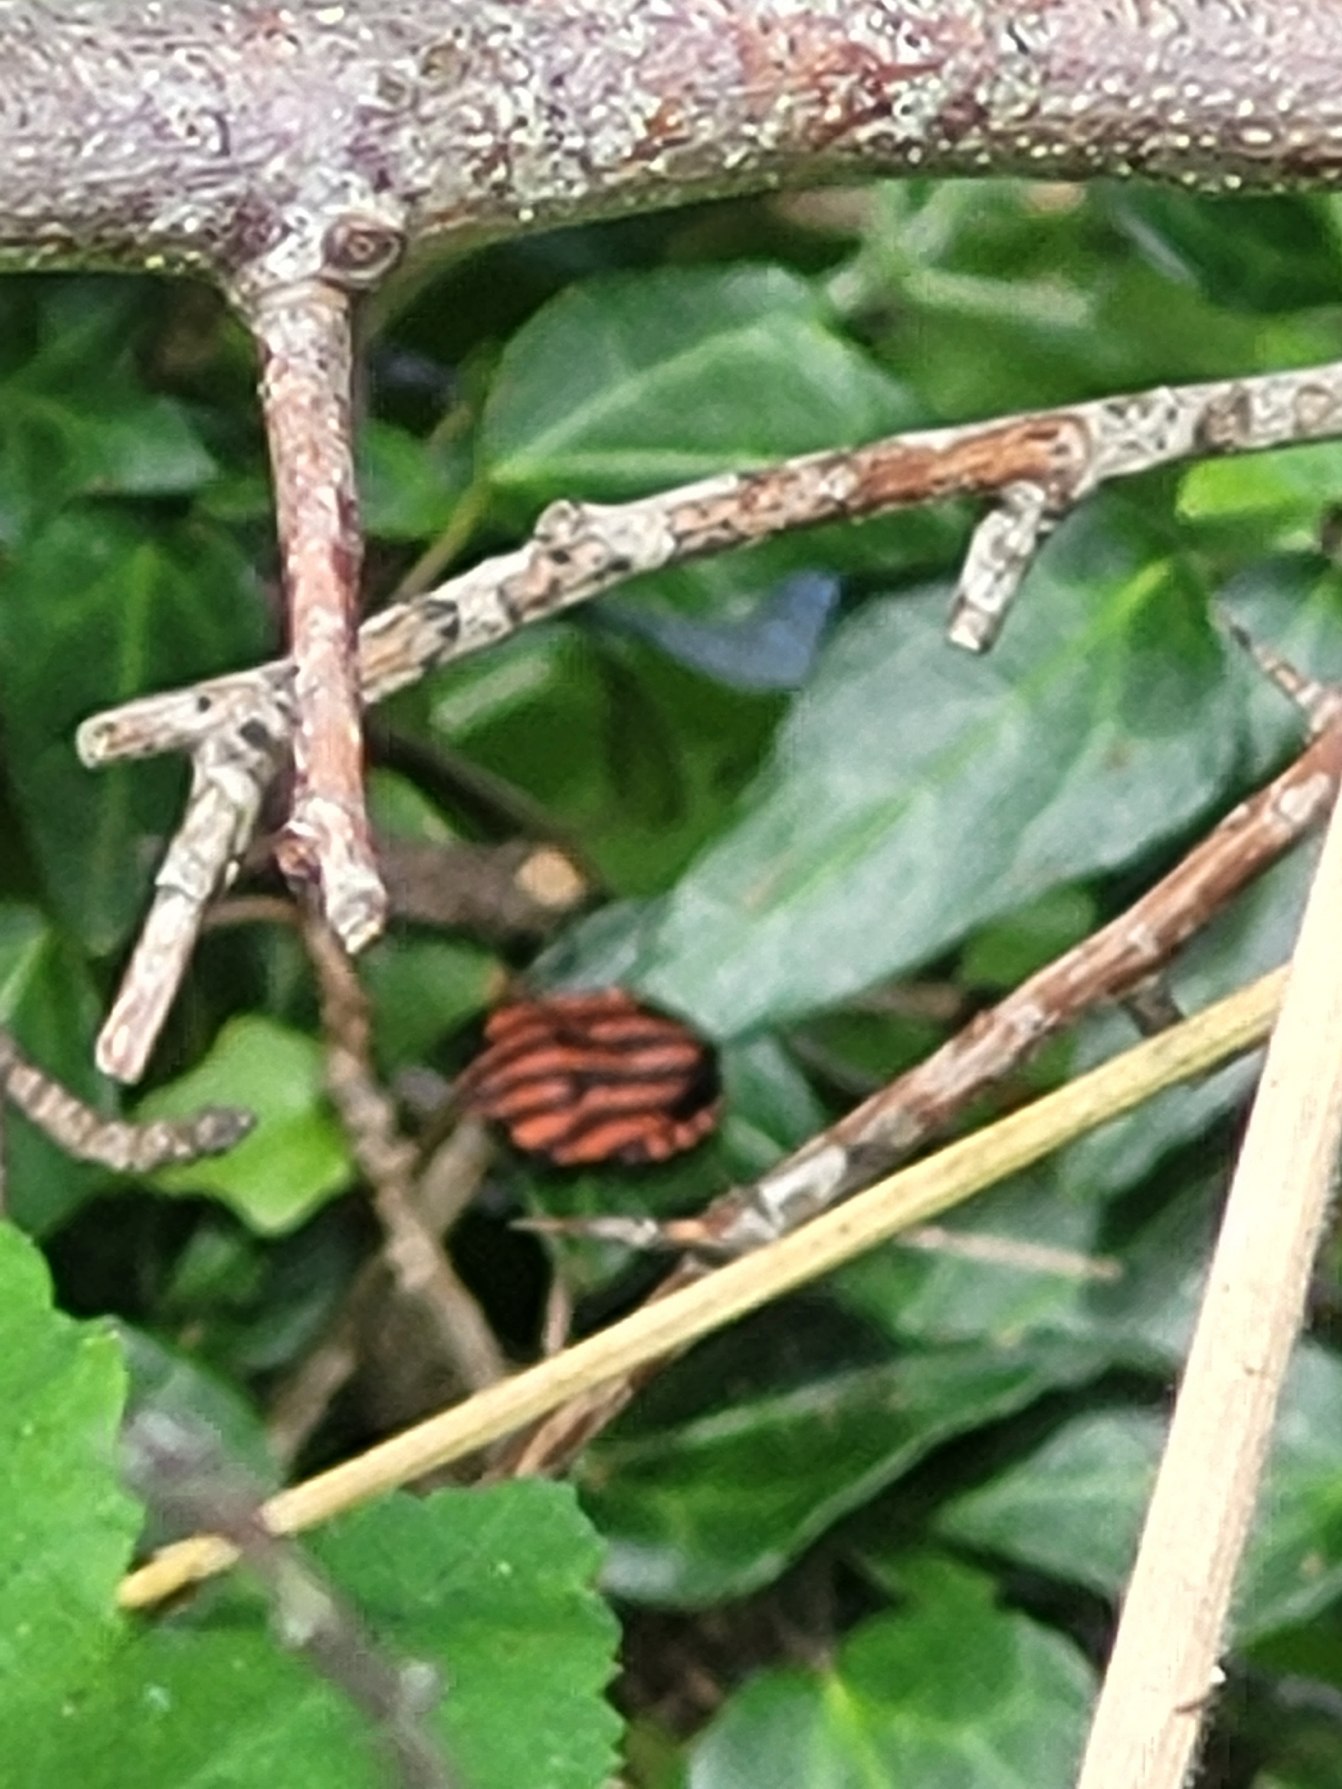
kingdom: Animalia
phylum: Arthropoda
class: Insecta
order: Hemiptera
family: Pentatomidae
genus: Graphosoma
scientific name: Graphosoma italicum
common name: Stribetæge
